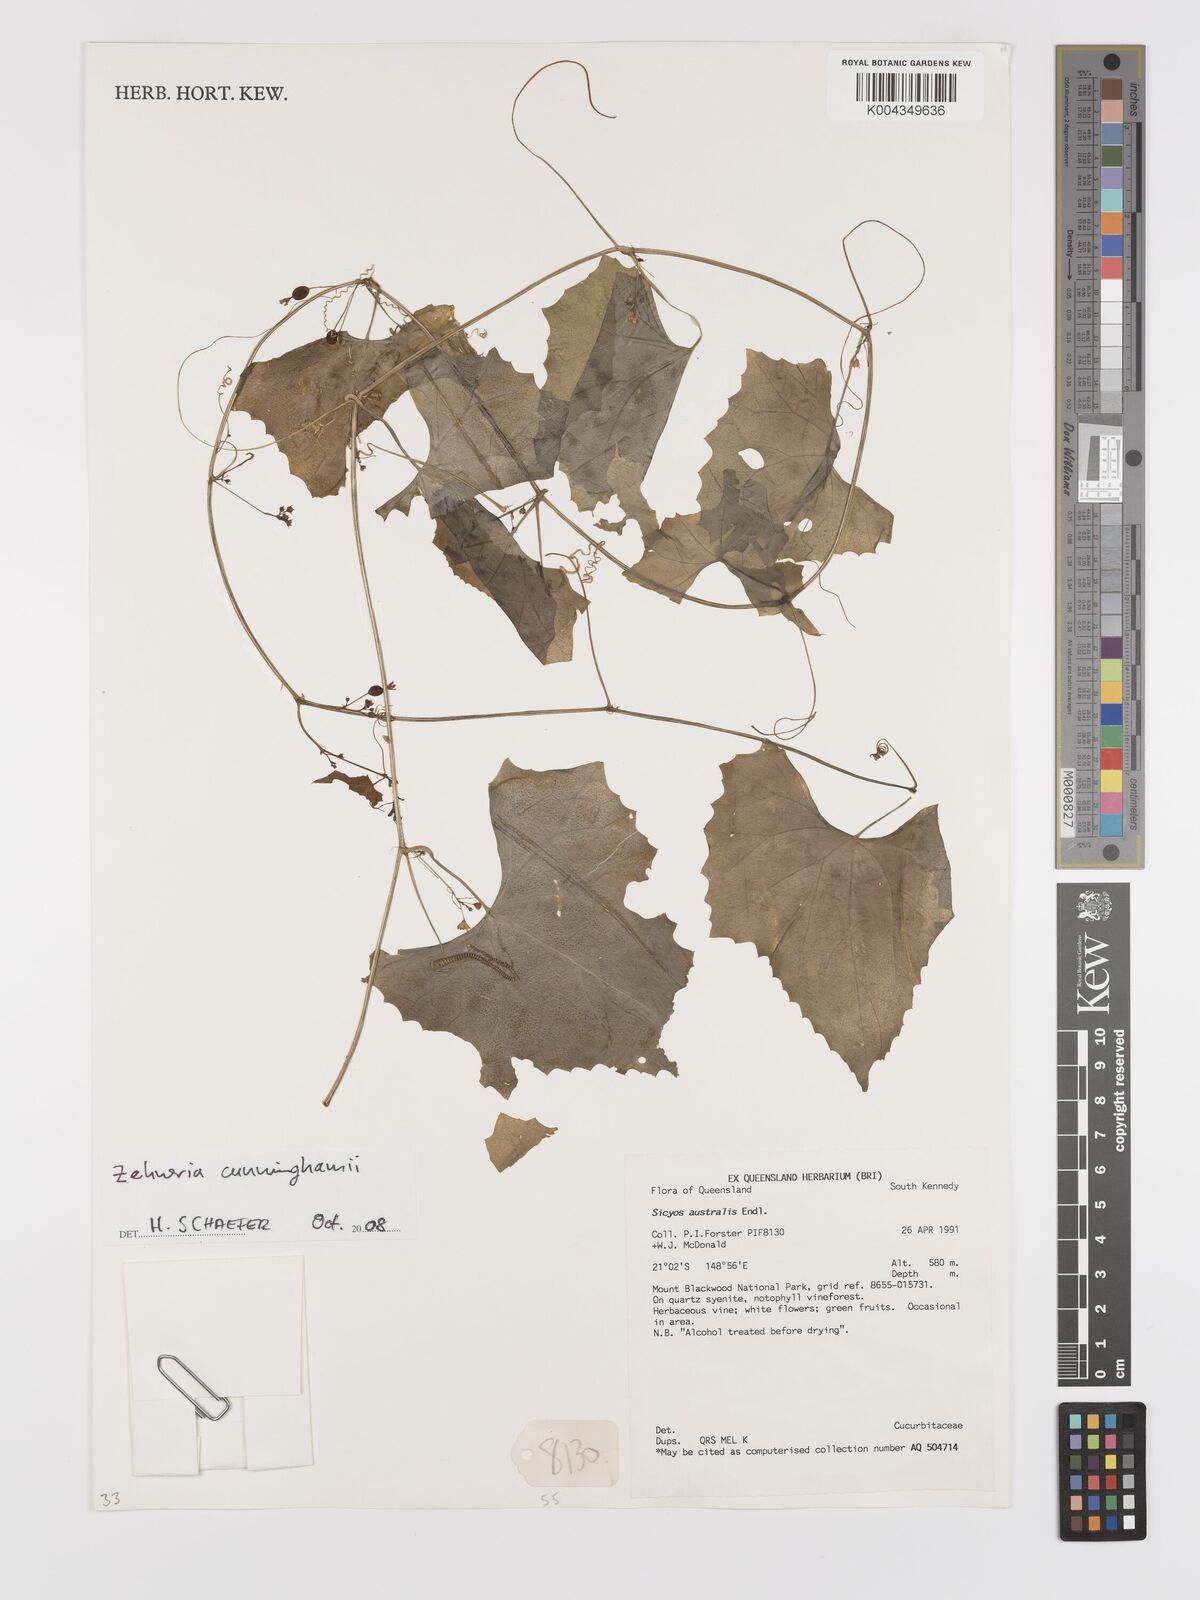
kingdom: Plantae
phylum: Tracheophyta
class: Magnoliopsida
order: Cucurbitales
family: Cucurbitaceae
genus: Zehneria
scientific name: Zehneria cunninghamii
